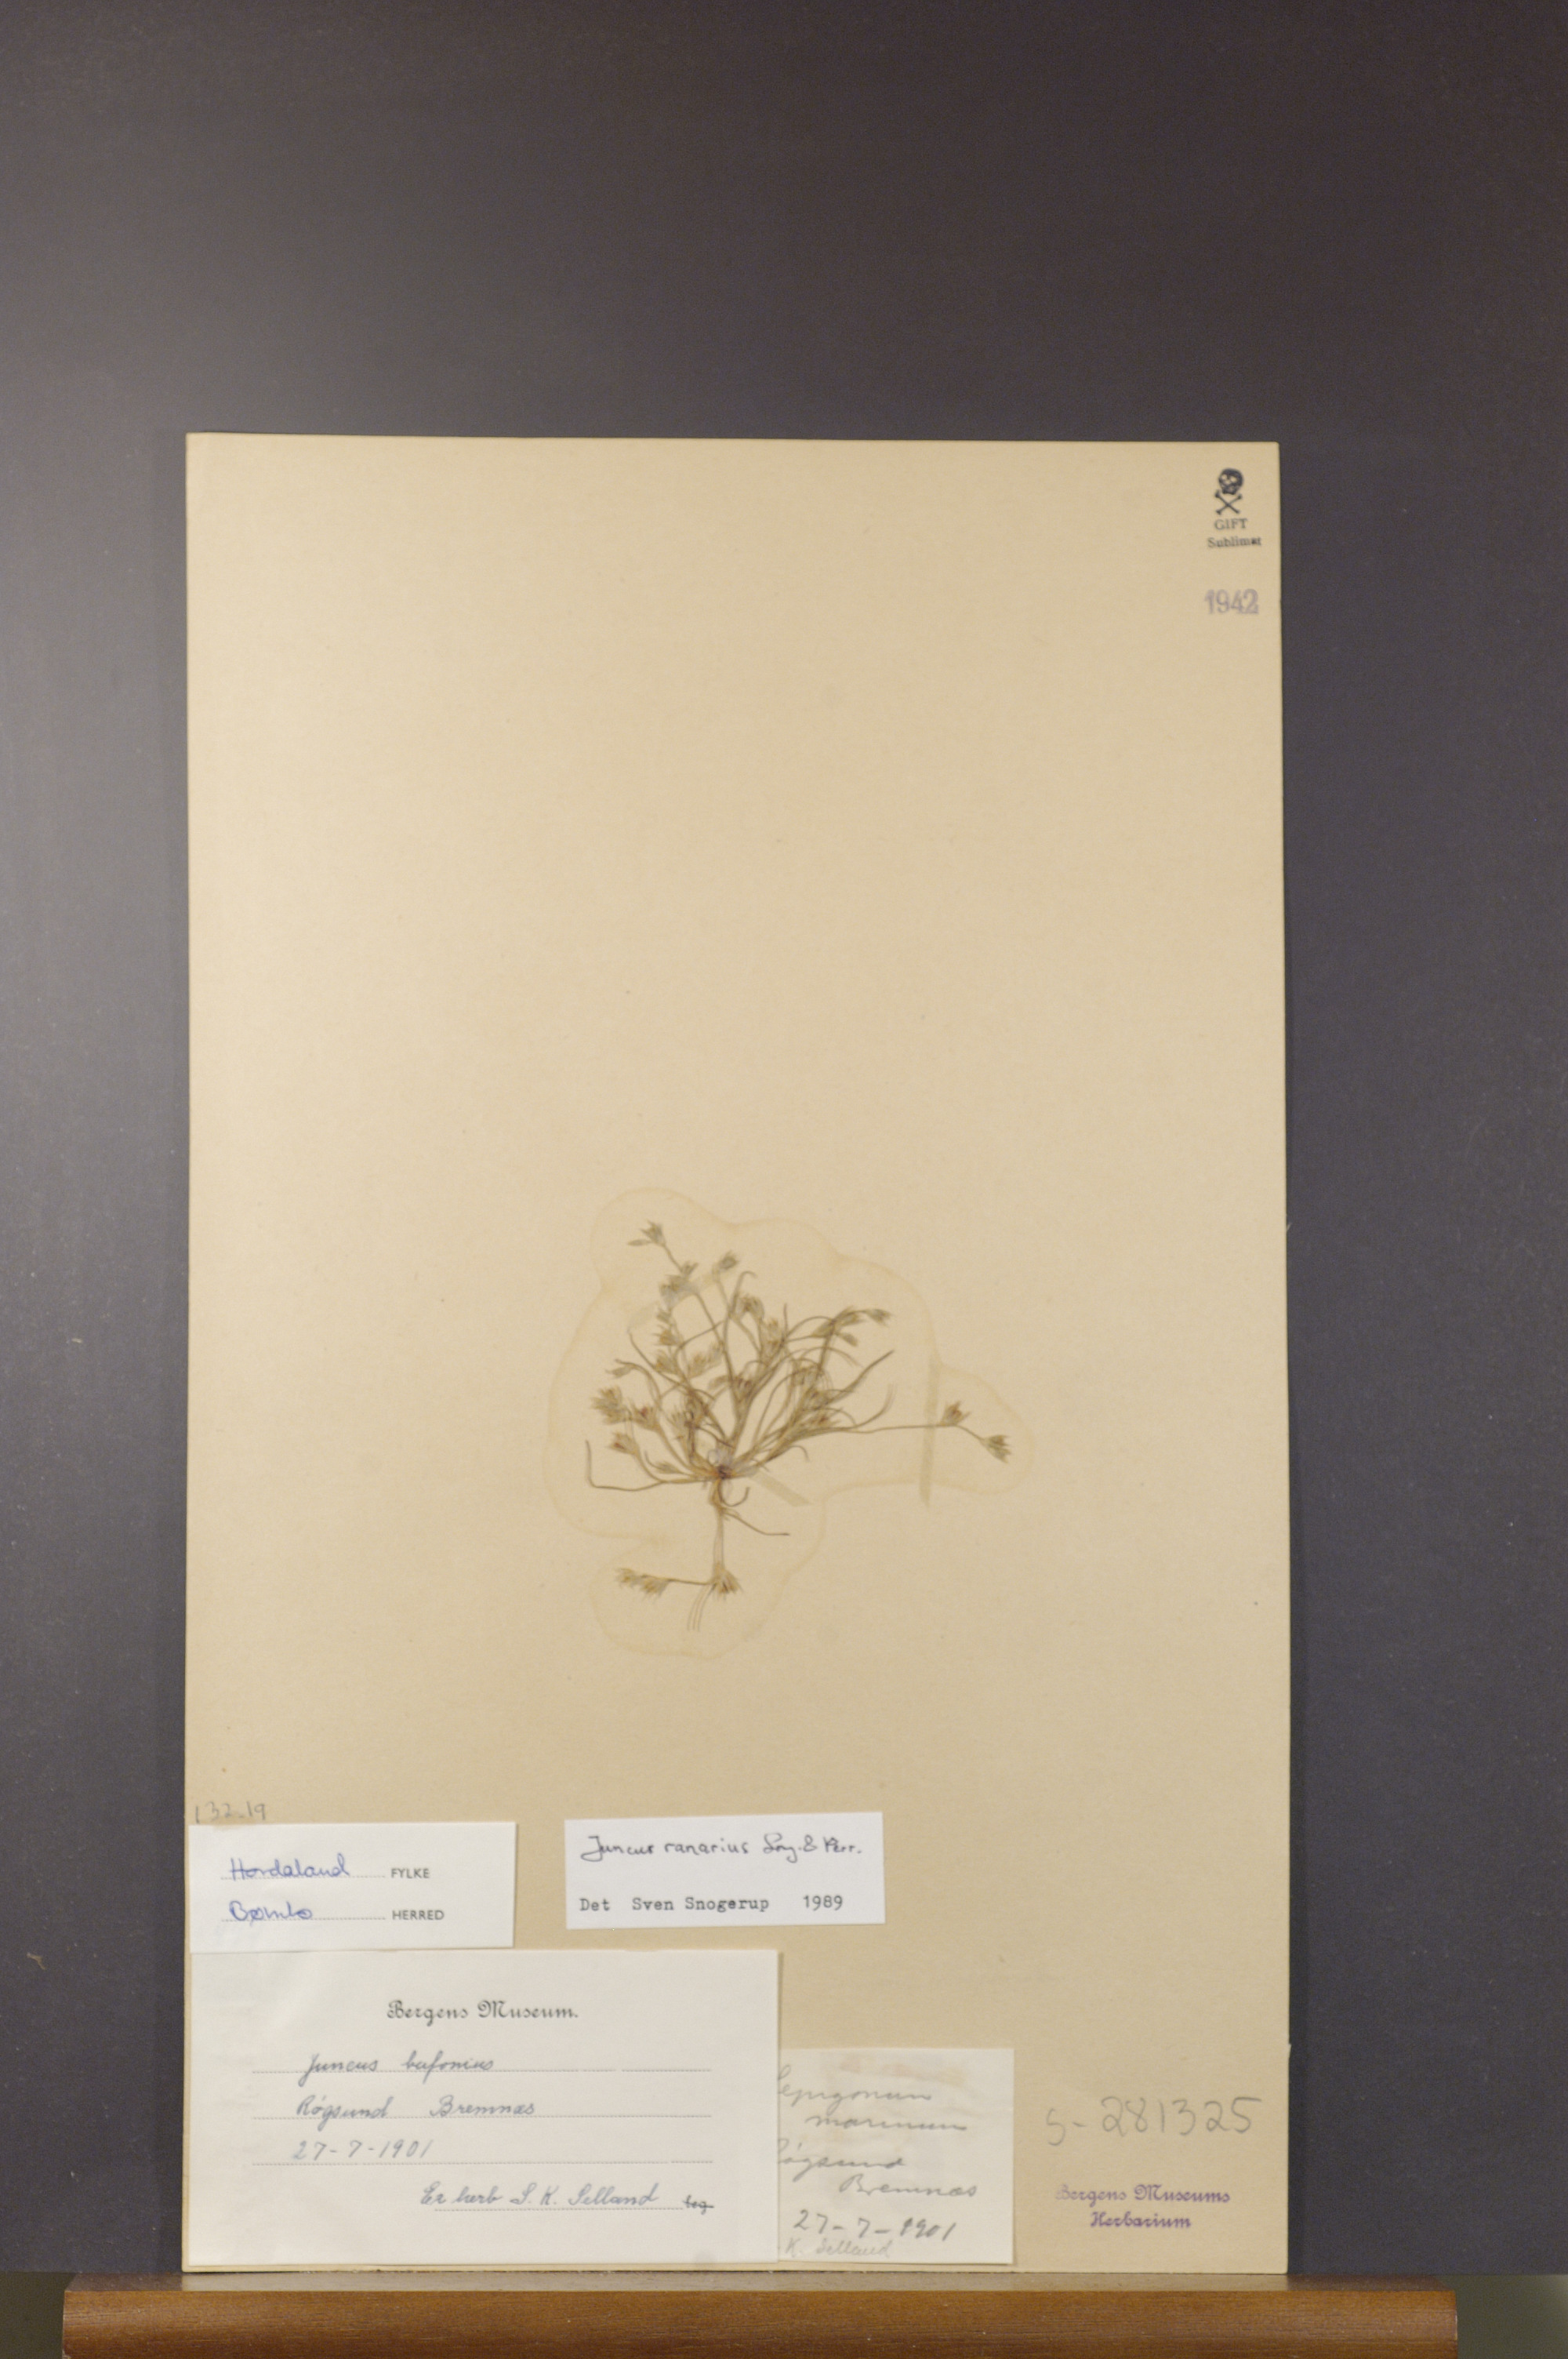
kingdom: Plantae
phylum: Tracheophyta
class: Liliopsida
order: Poales
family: Juncaceae
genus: Juncus
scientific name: Juncus ranarius
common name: Frog rush
